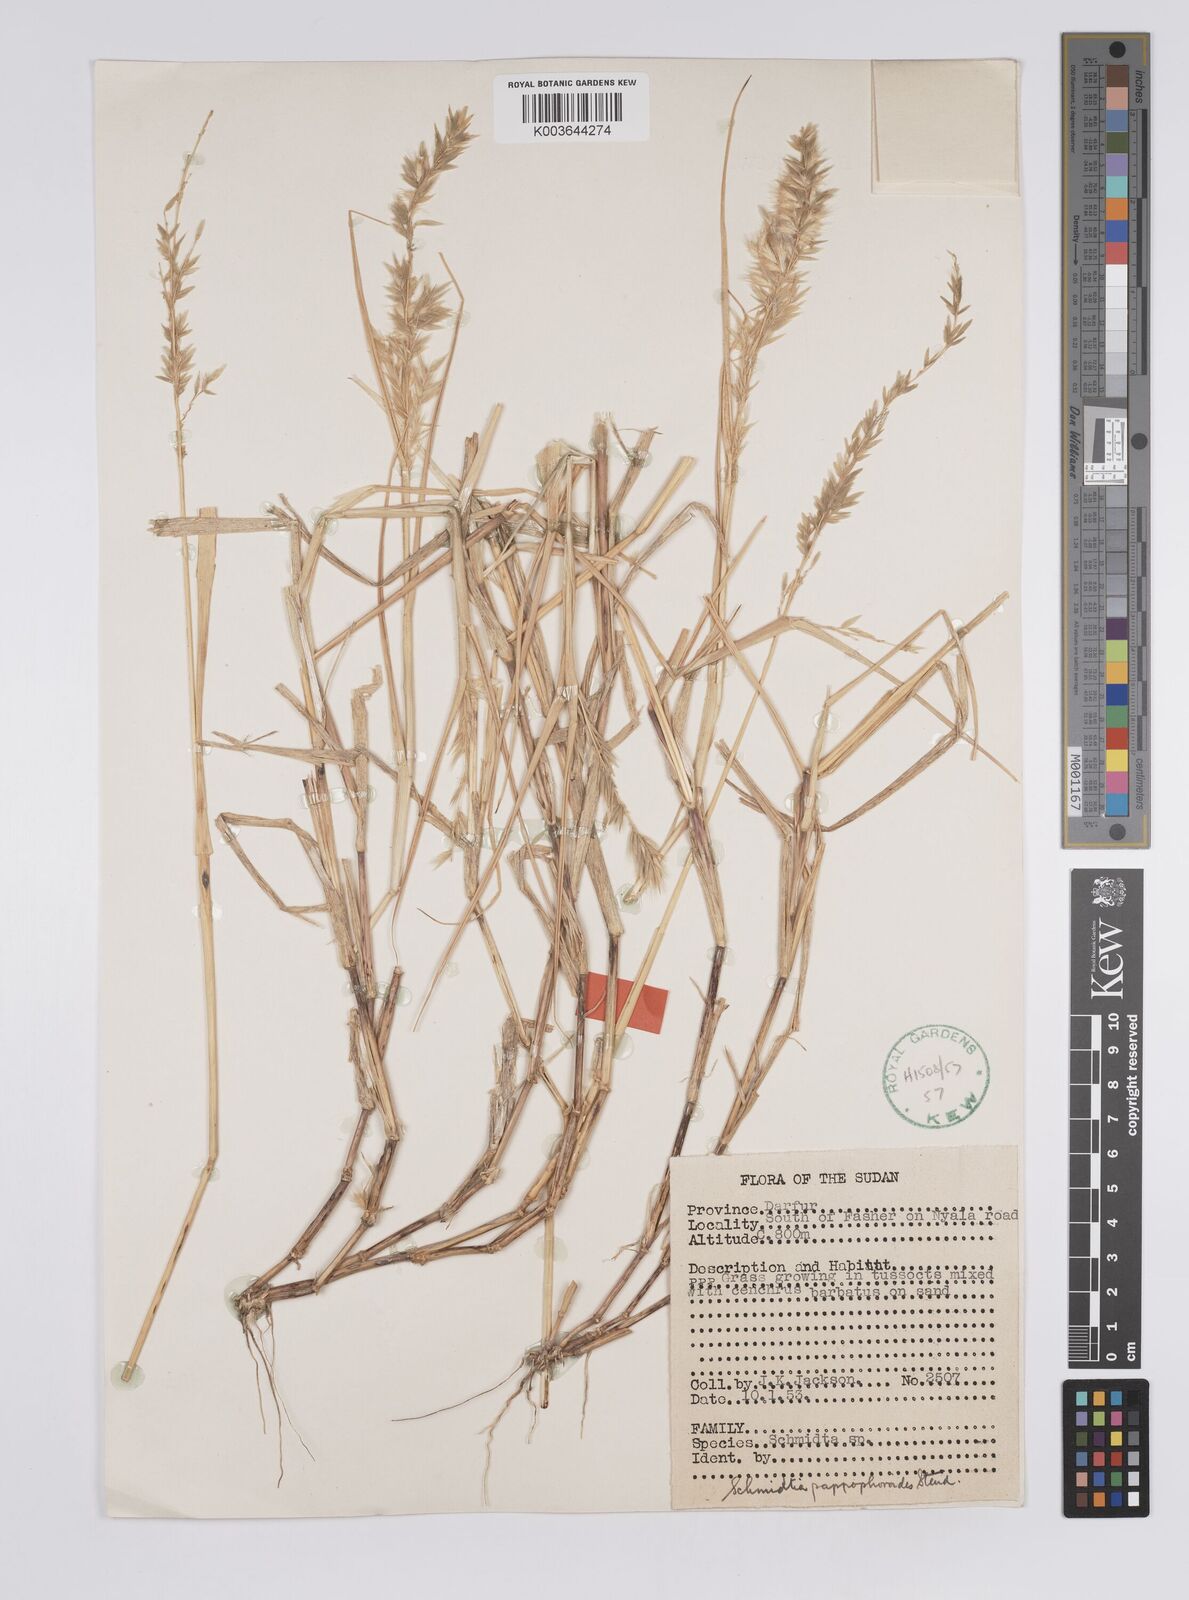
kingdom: Plantae
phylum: Tracheophyta
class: Liliopsida
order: Poales
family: Poaceae
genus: Schmidtia
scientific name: Schmidtia kalahariensis
